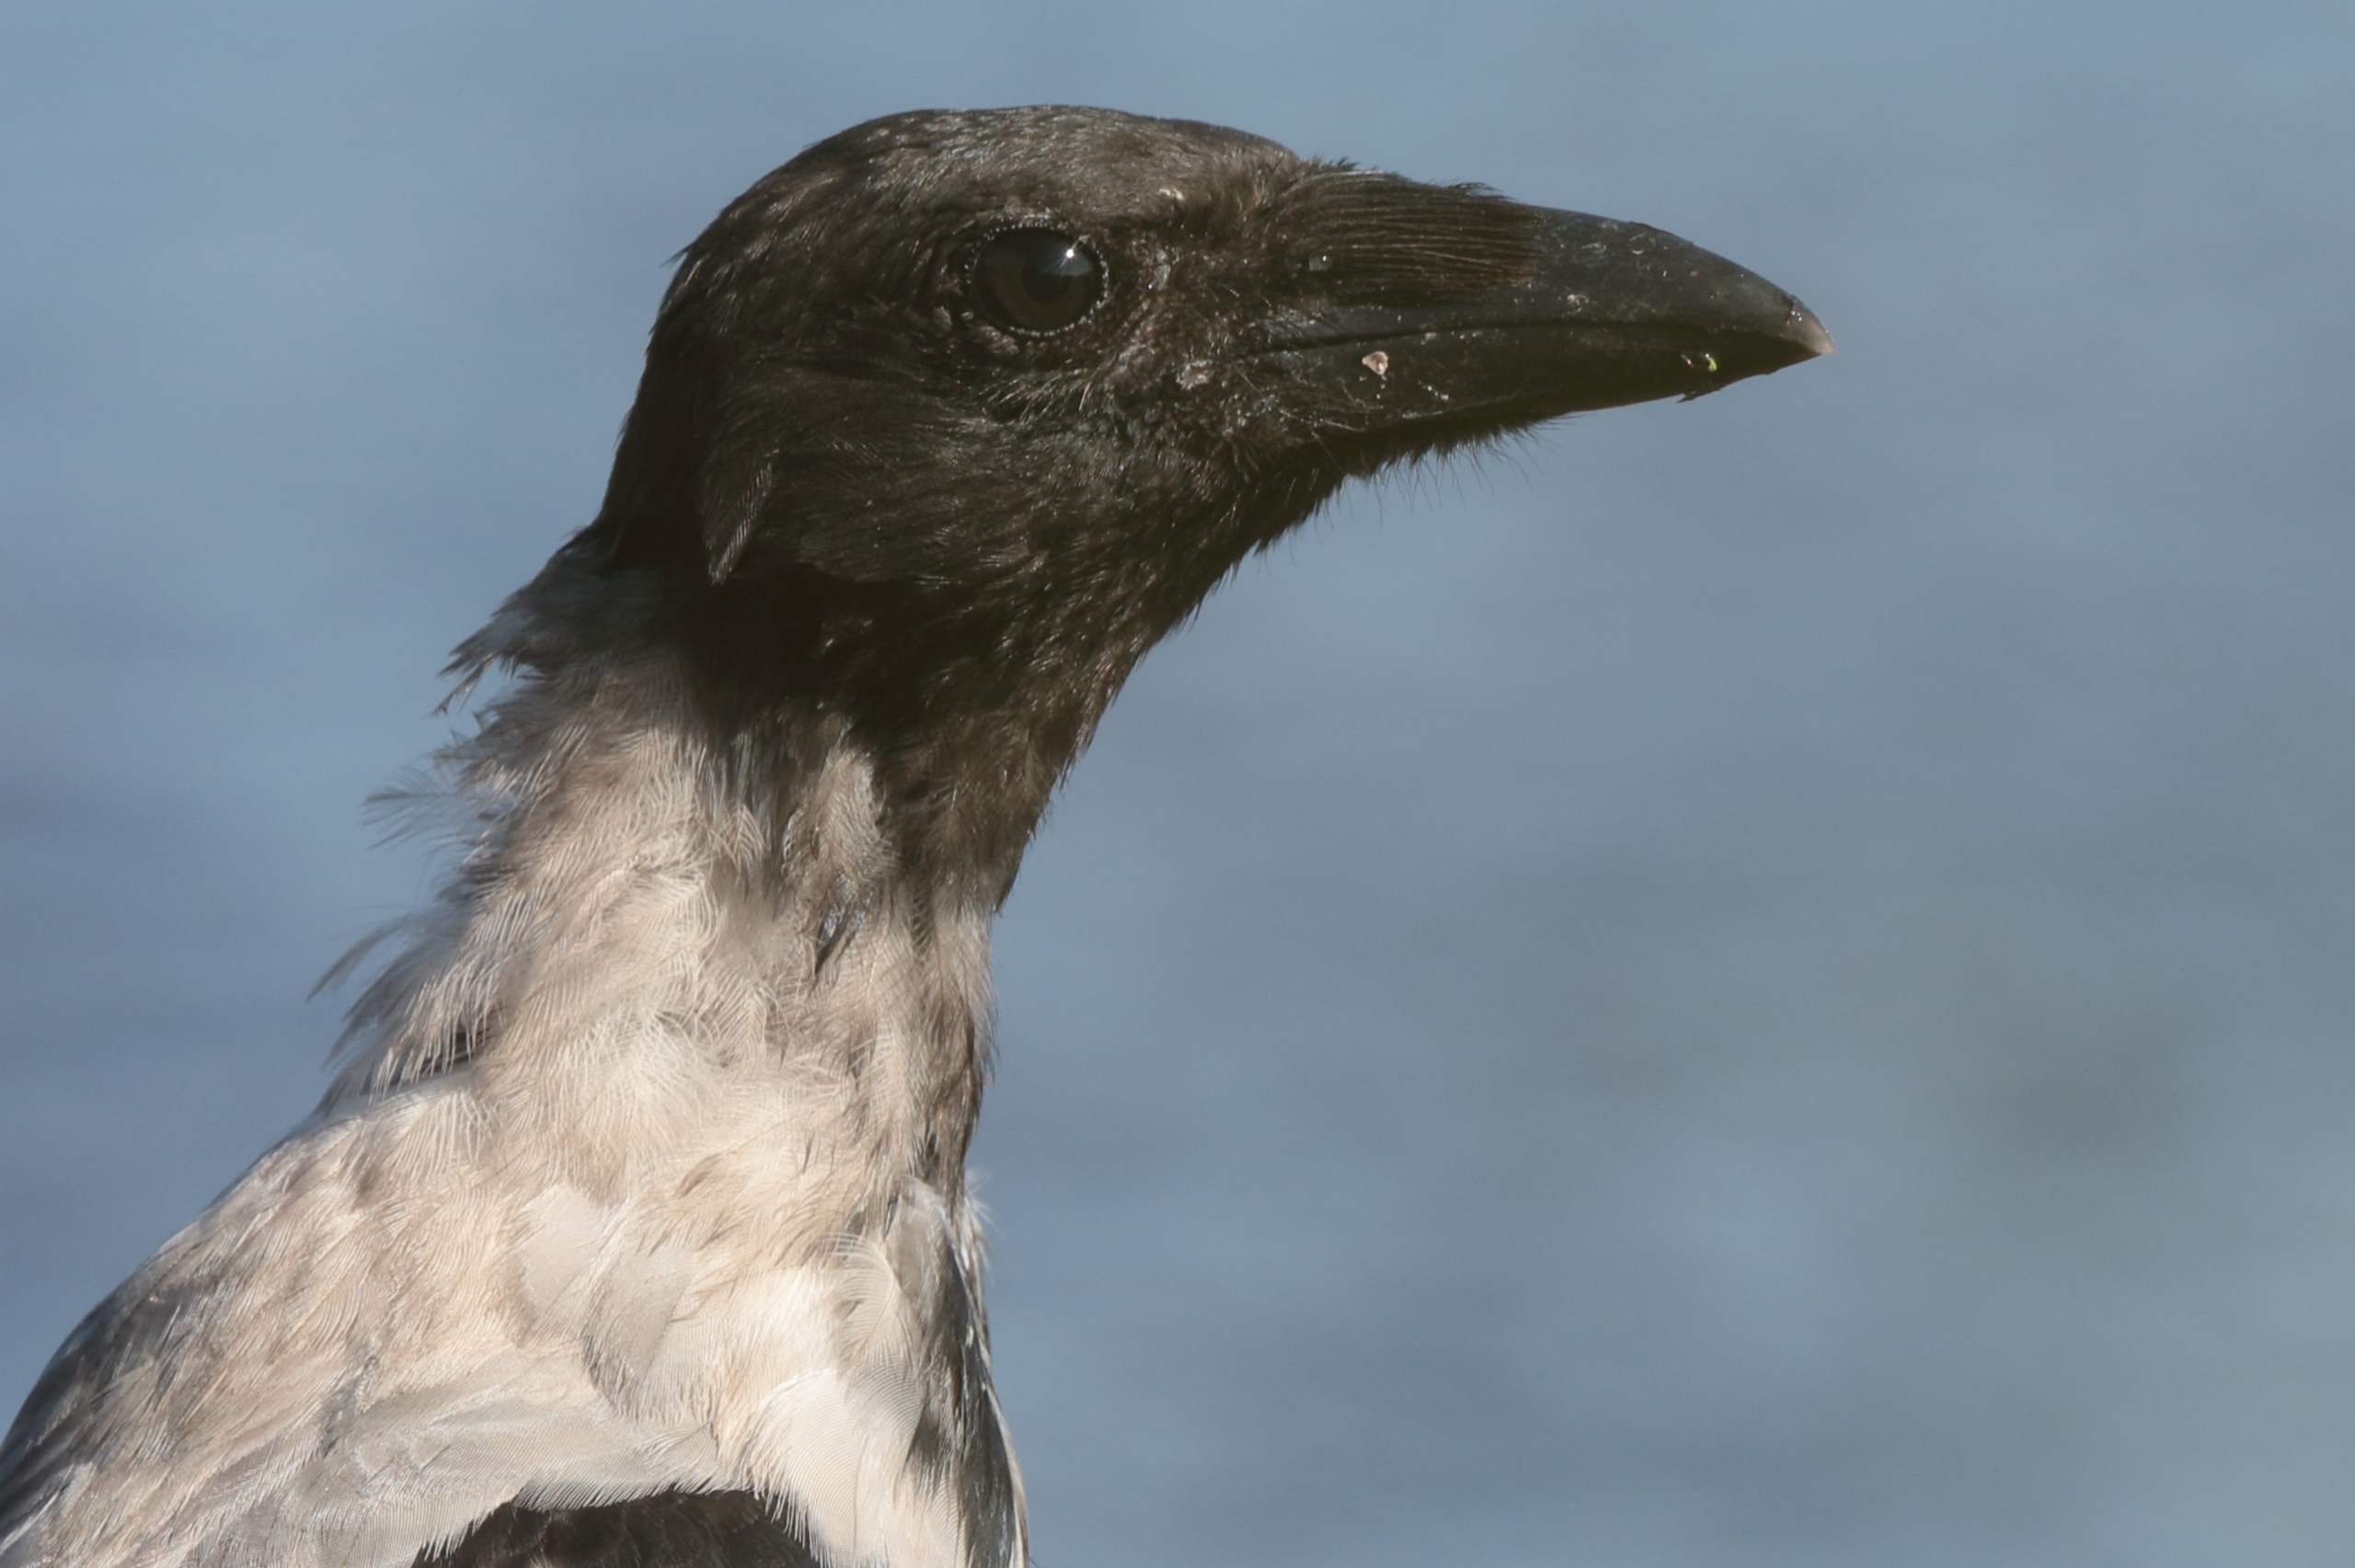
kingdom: Animalia
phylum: Chordata
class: Aves
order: Passeriformes
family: Corvidae
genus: Corvus
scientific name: Corvus cornix
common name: Gråkrage
